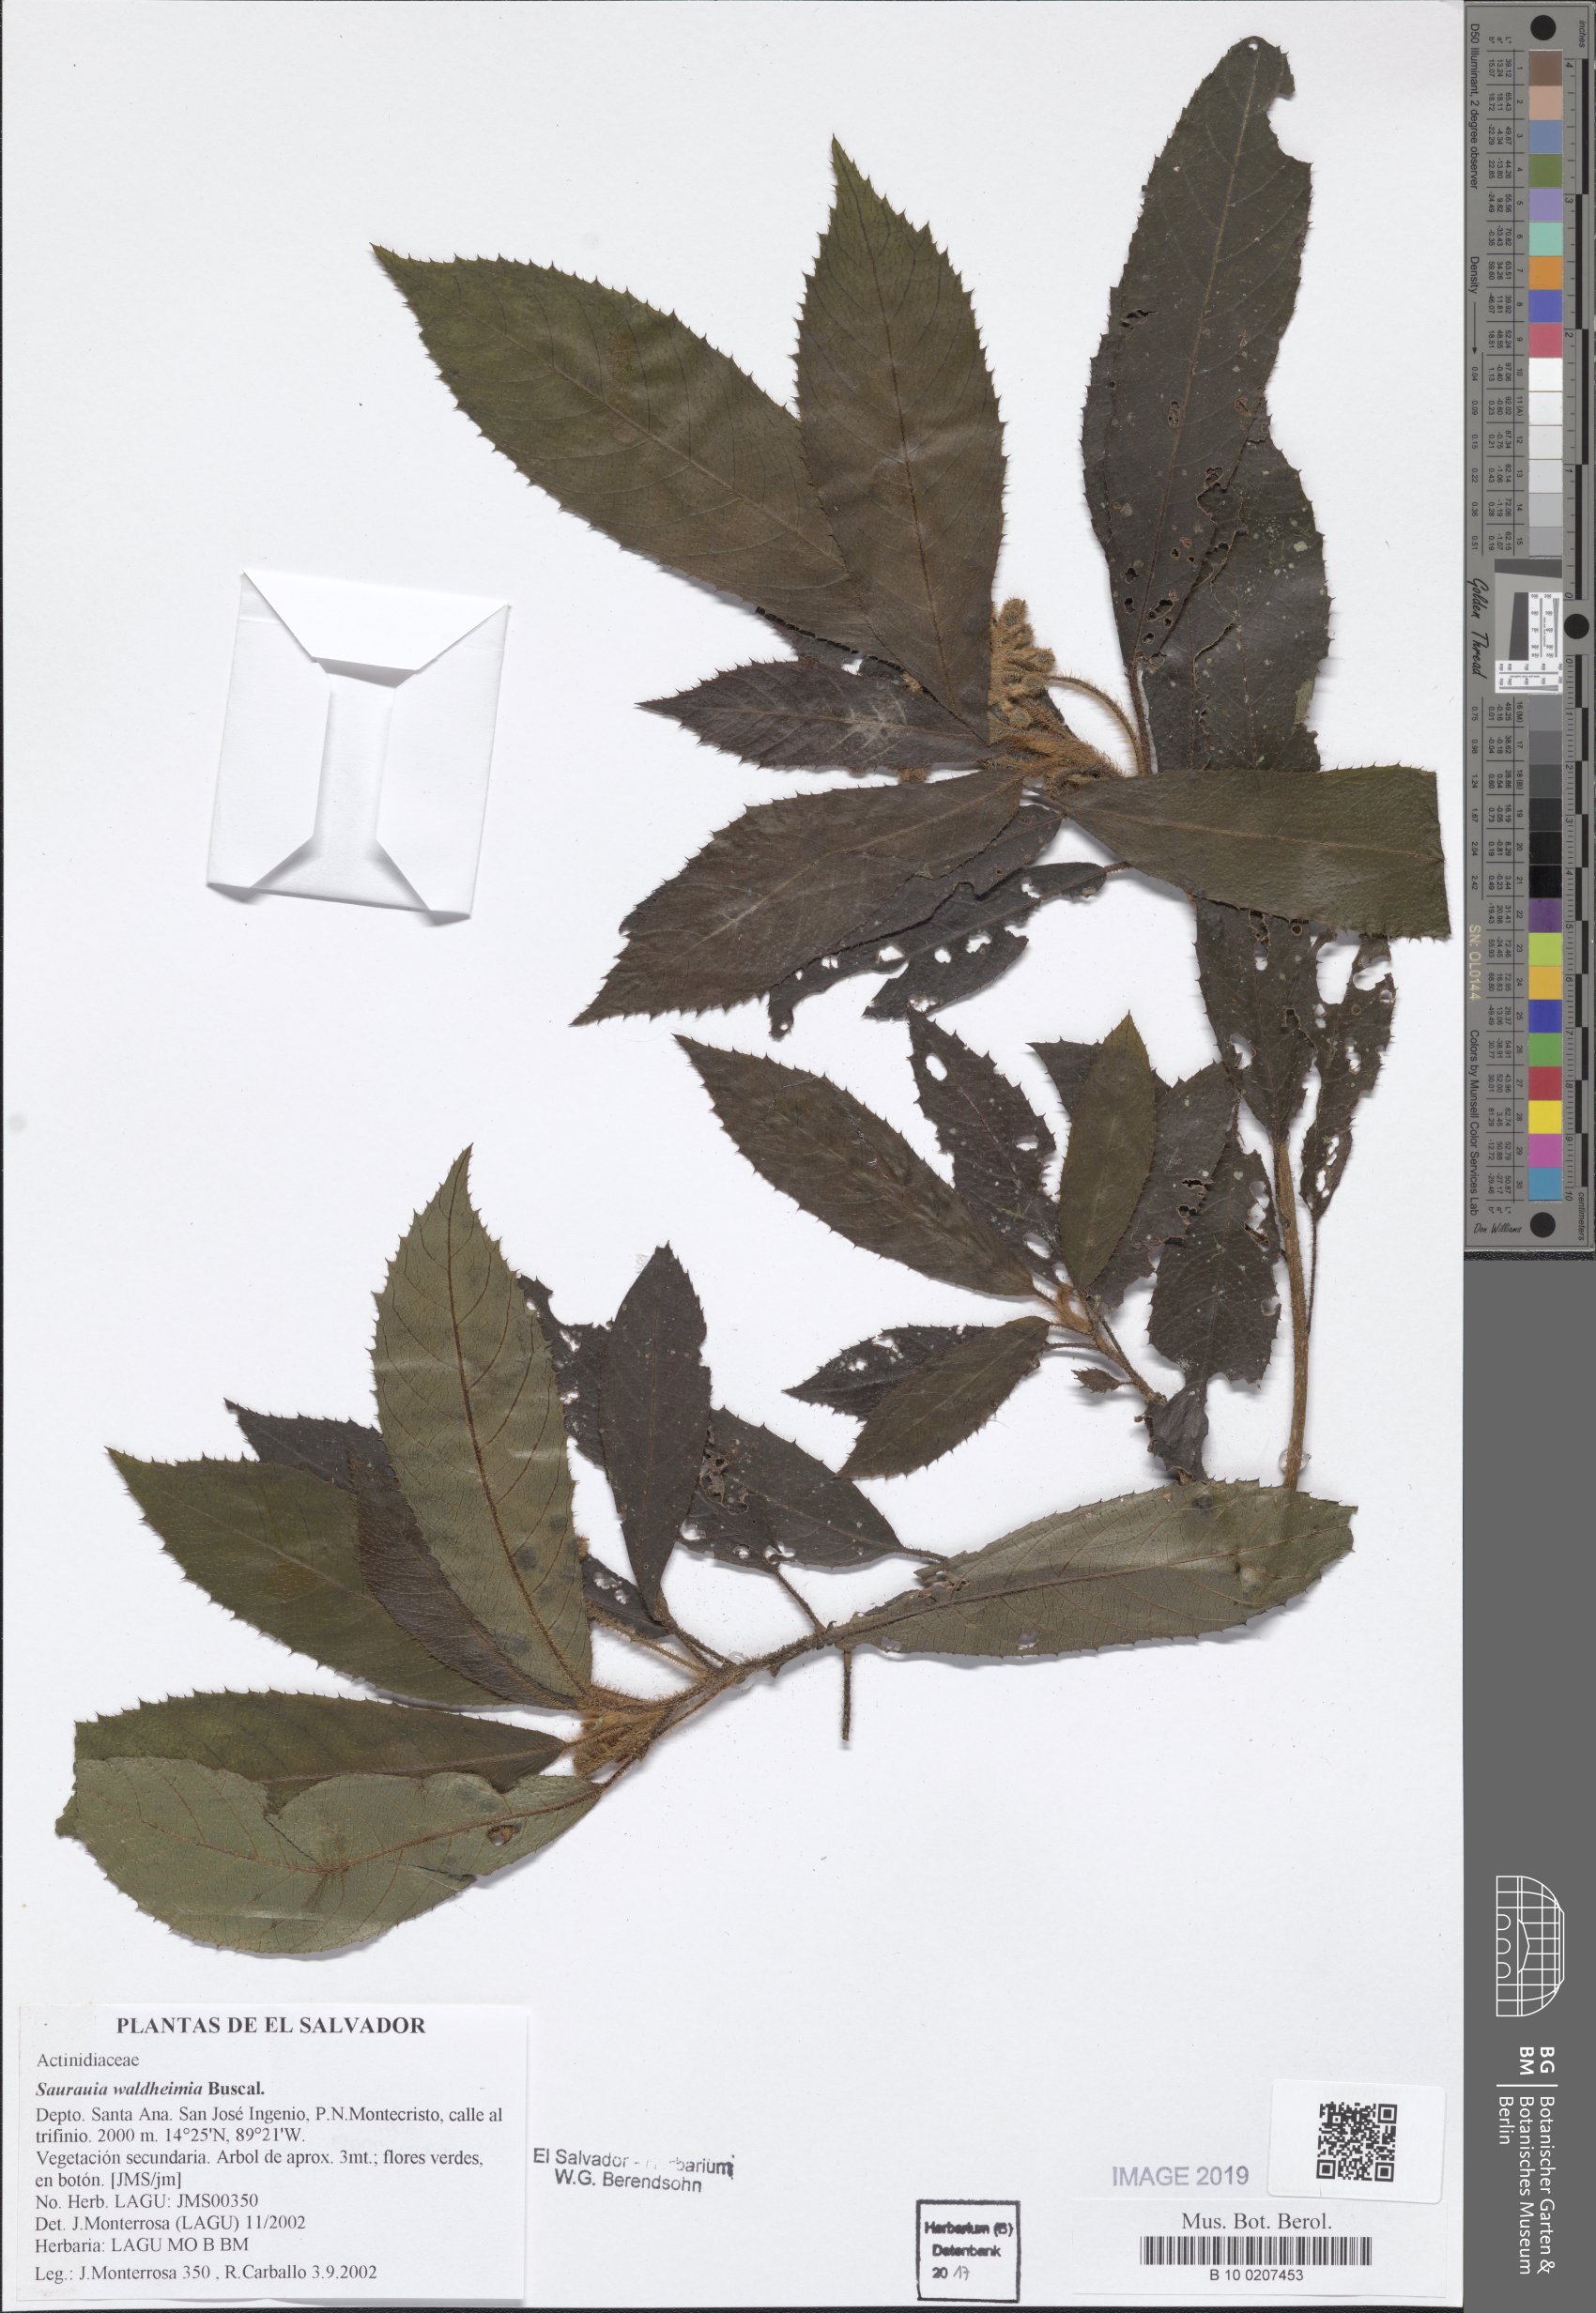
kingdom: Plantae
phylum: Tracheophyta
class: Magnoliopsida
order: Ericales
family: Actinidiaceae
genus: Saurauia
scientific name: Saurauia waldheimii
